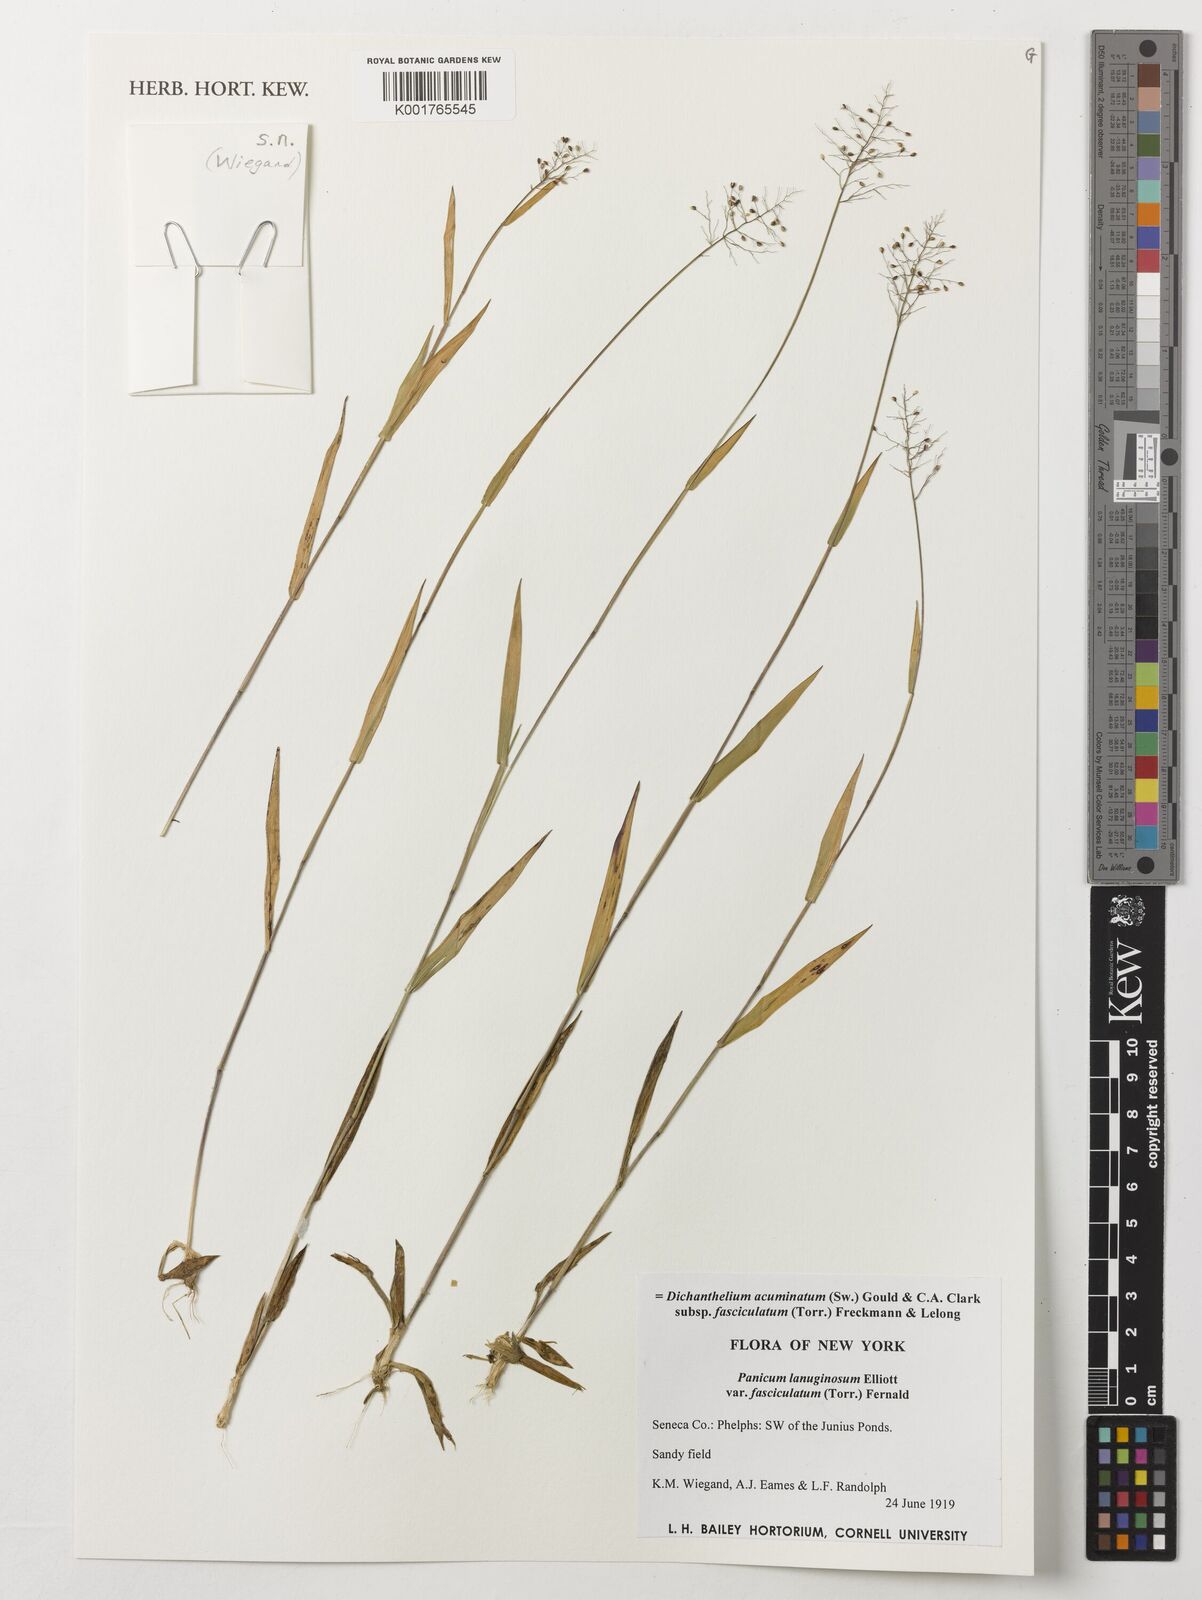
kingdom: Plantae
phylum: Tracheophyta
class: Liliopsida
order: Poales
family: Poaceae
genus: Dichanthelium
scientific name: Dichanthelium lanuginosum
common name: Woolly panicgrass
